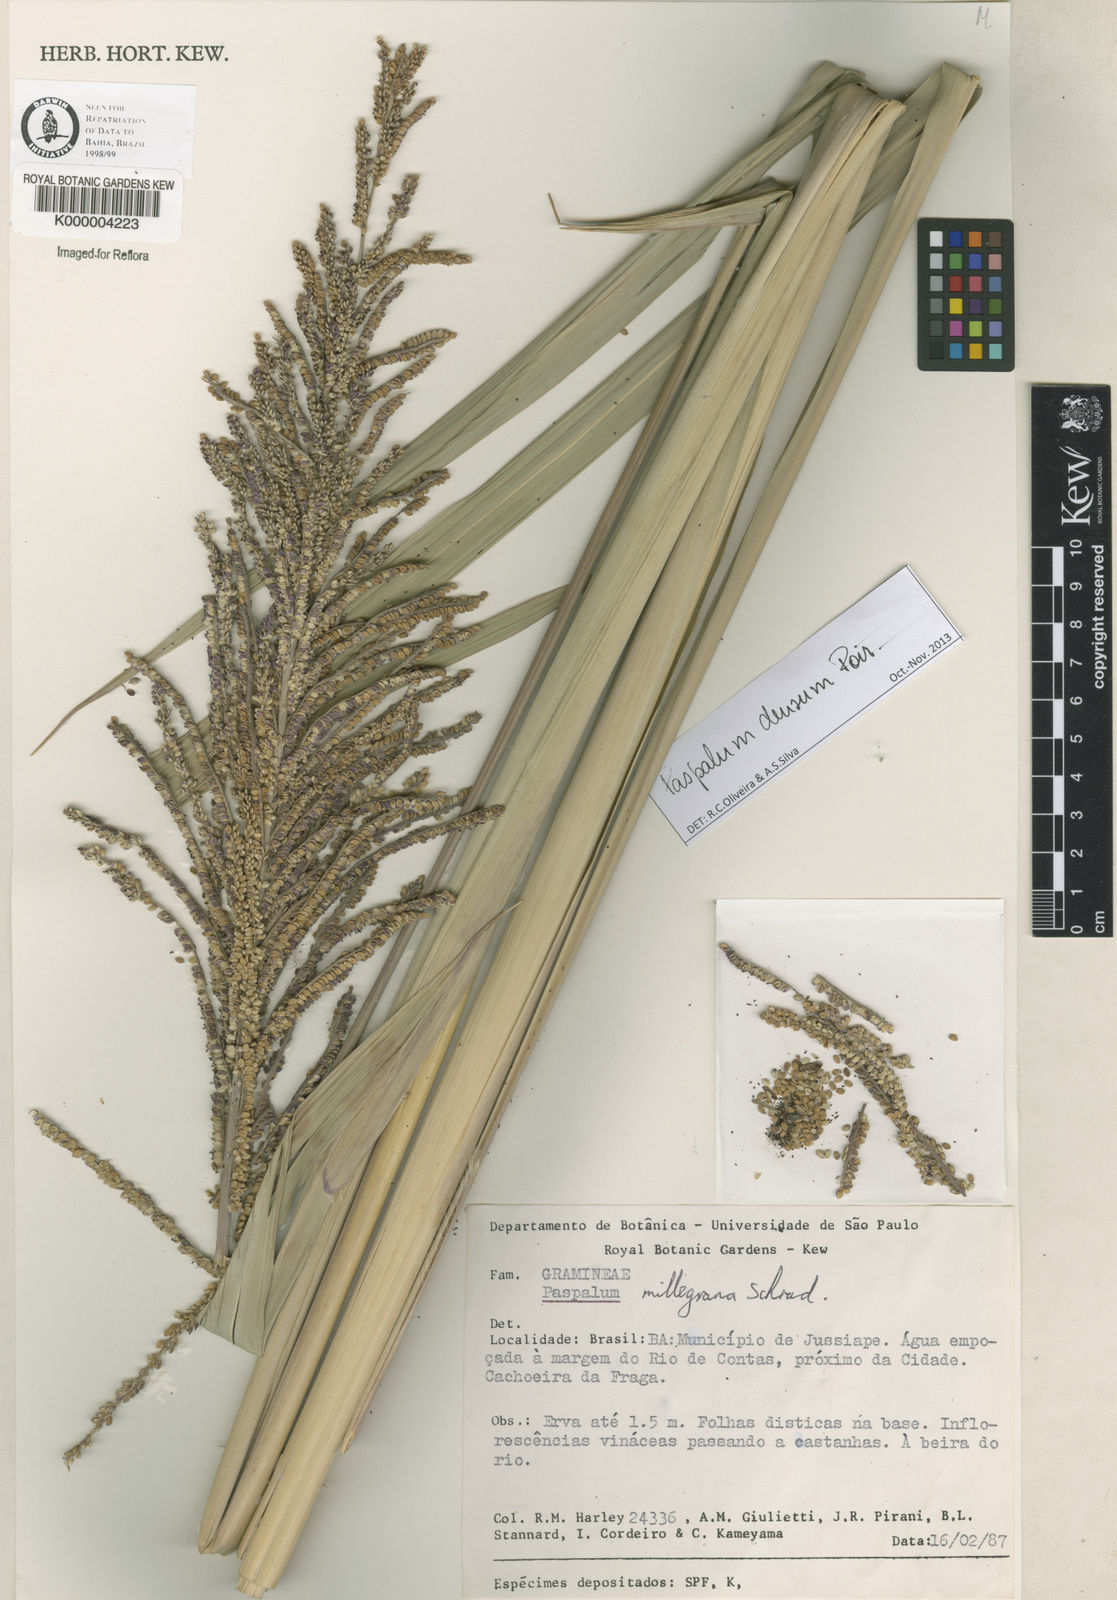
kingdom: Plantae
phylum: Tracheophyta
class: Liliopsida
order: Poales
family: Poaceae
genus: Paspalum
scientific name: Paspalum millegranum
